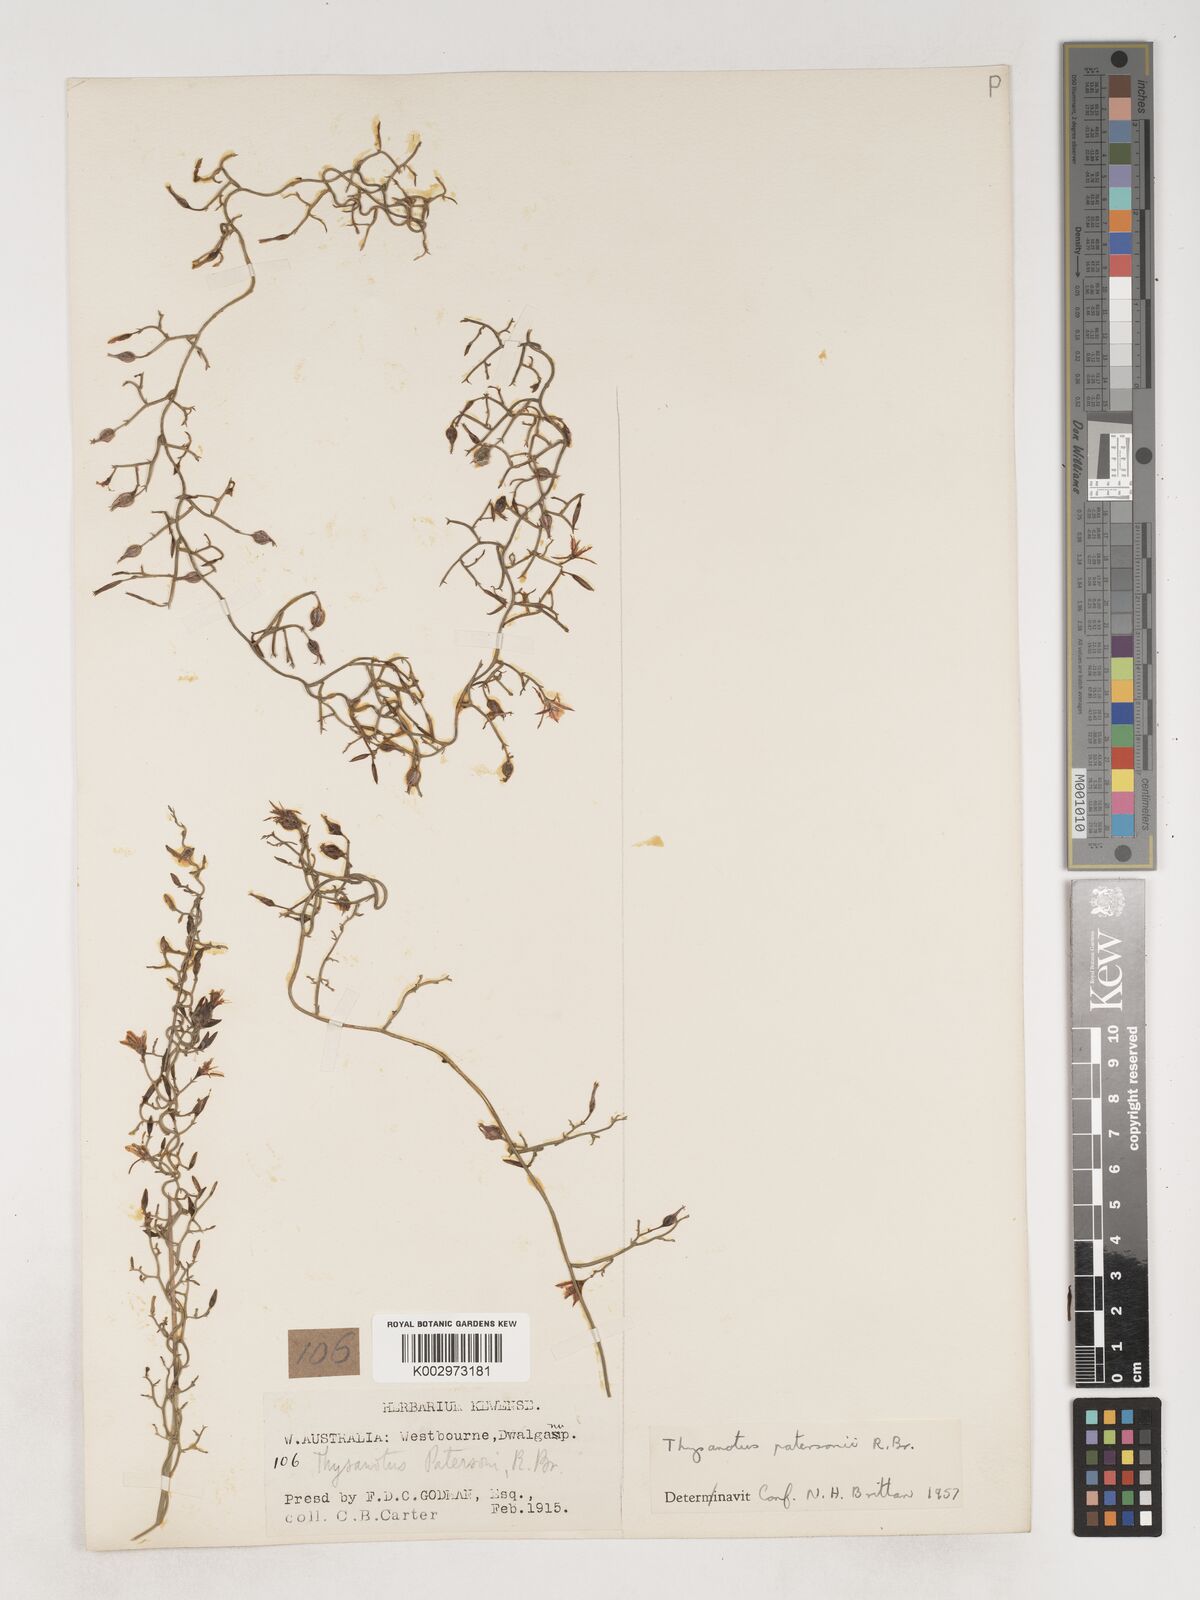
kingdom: Plantae
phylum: Tracheophyta
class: Liliopsida
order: Asparagales
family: Asparagaceae
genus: Thysanotus
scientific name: Thysanotus patersonii
